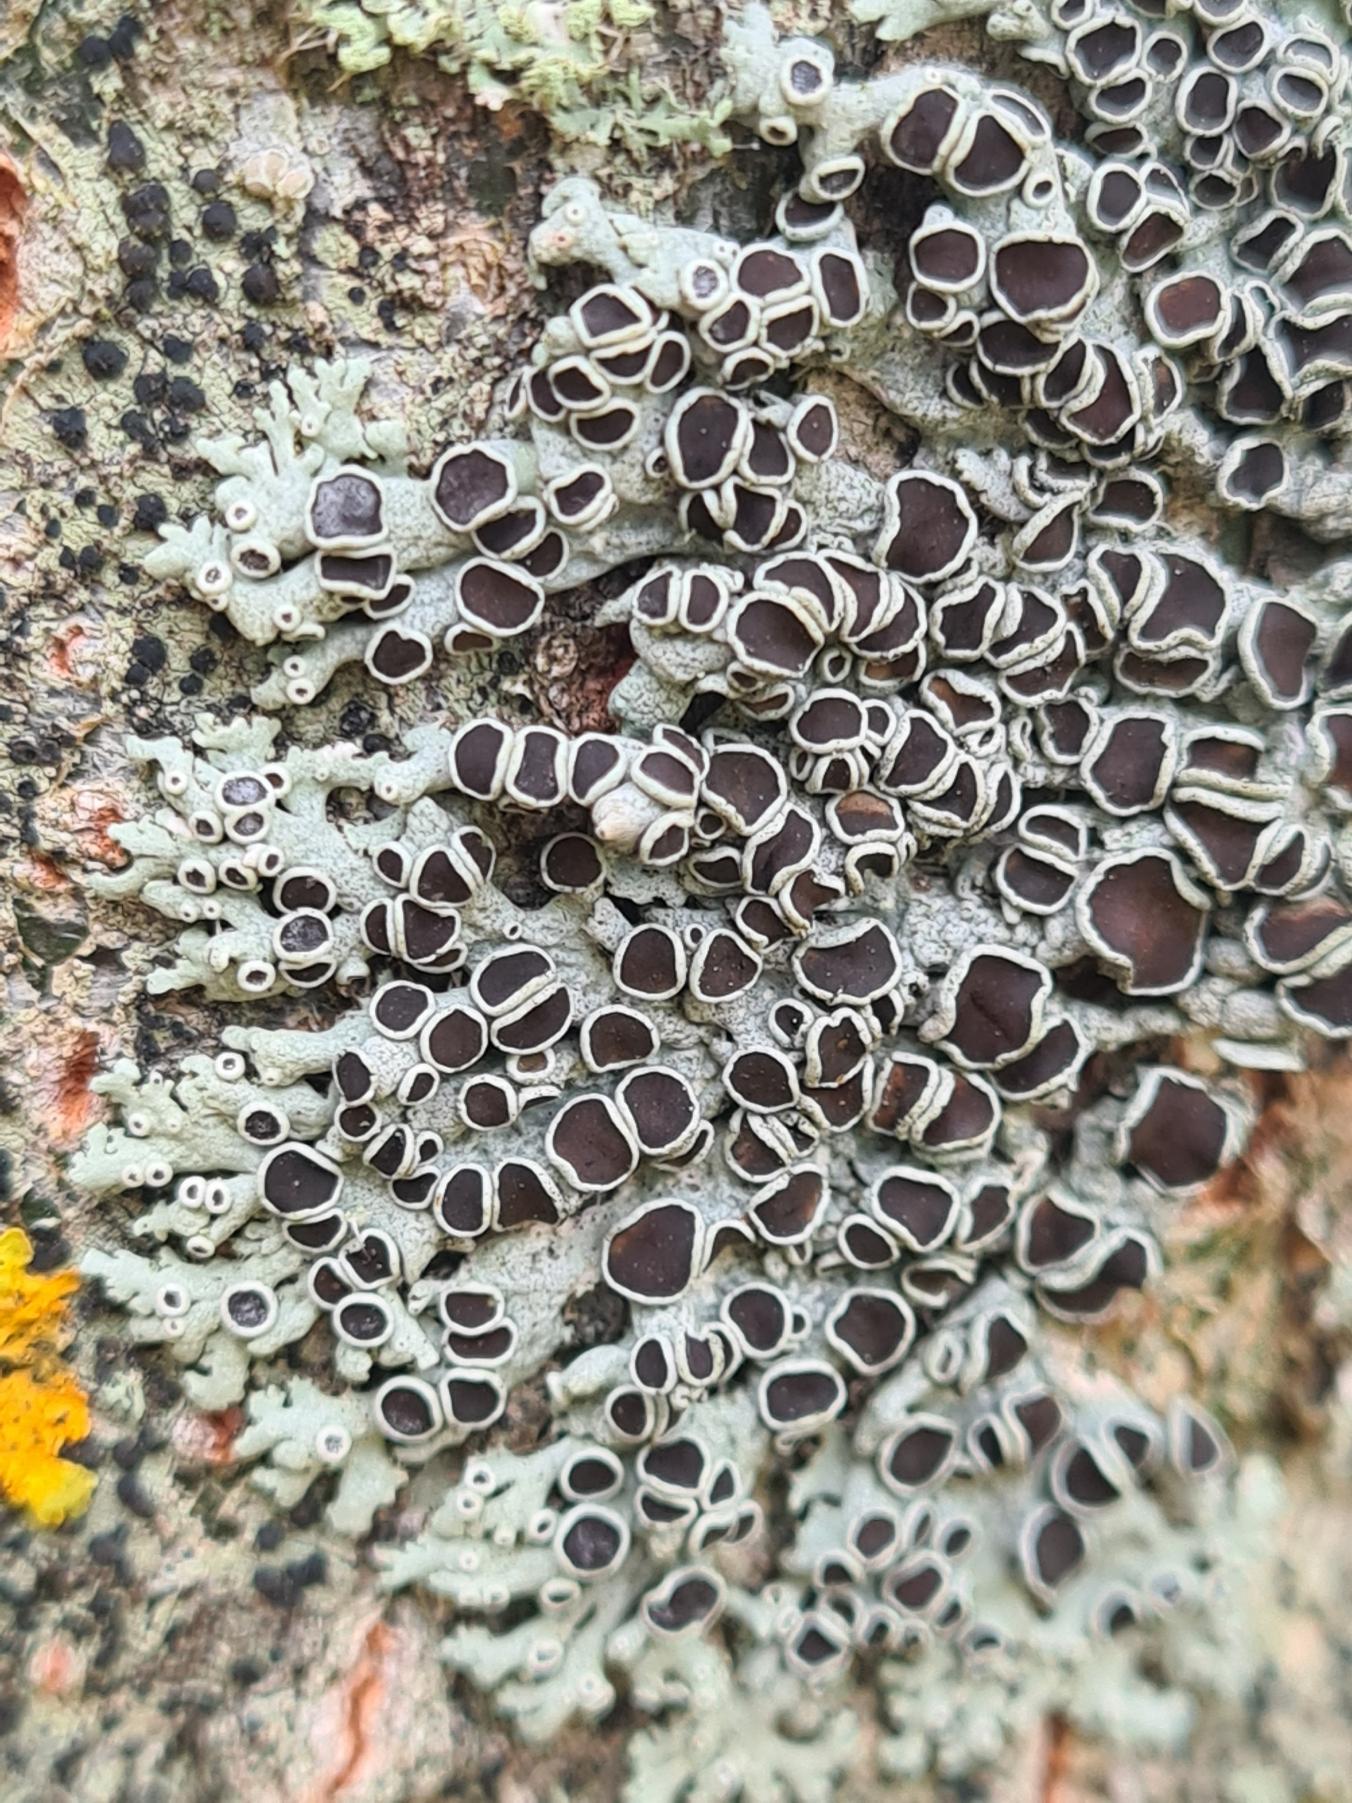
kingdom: Fungi
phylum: Ascomycota
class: Lecanoromycetes
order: Caliciales
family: Physciaceae
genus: Physcia
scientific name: Physcia aipolia
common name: Hvidprikket rosetlav
